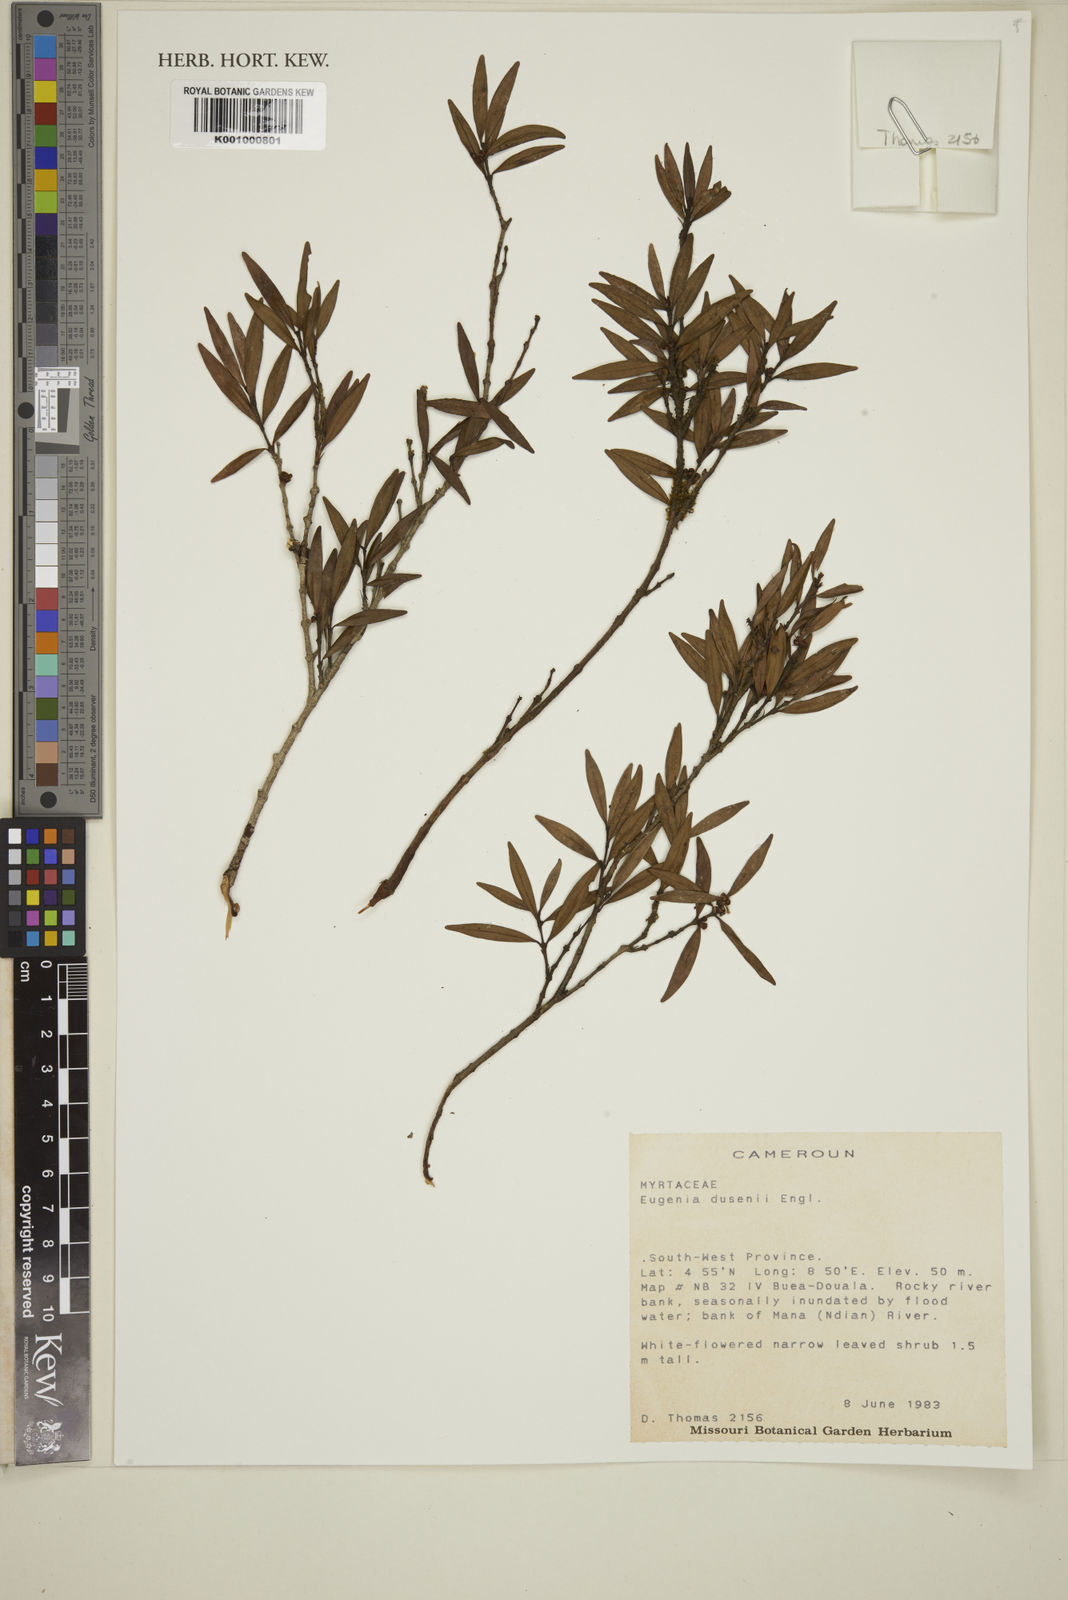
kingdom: Plantae
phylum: Tracheophyta
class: Magnoliopsida
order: Myrtales
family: Myrtaceae
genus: Eugenia
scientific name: Eugenia
